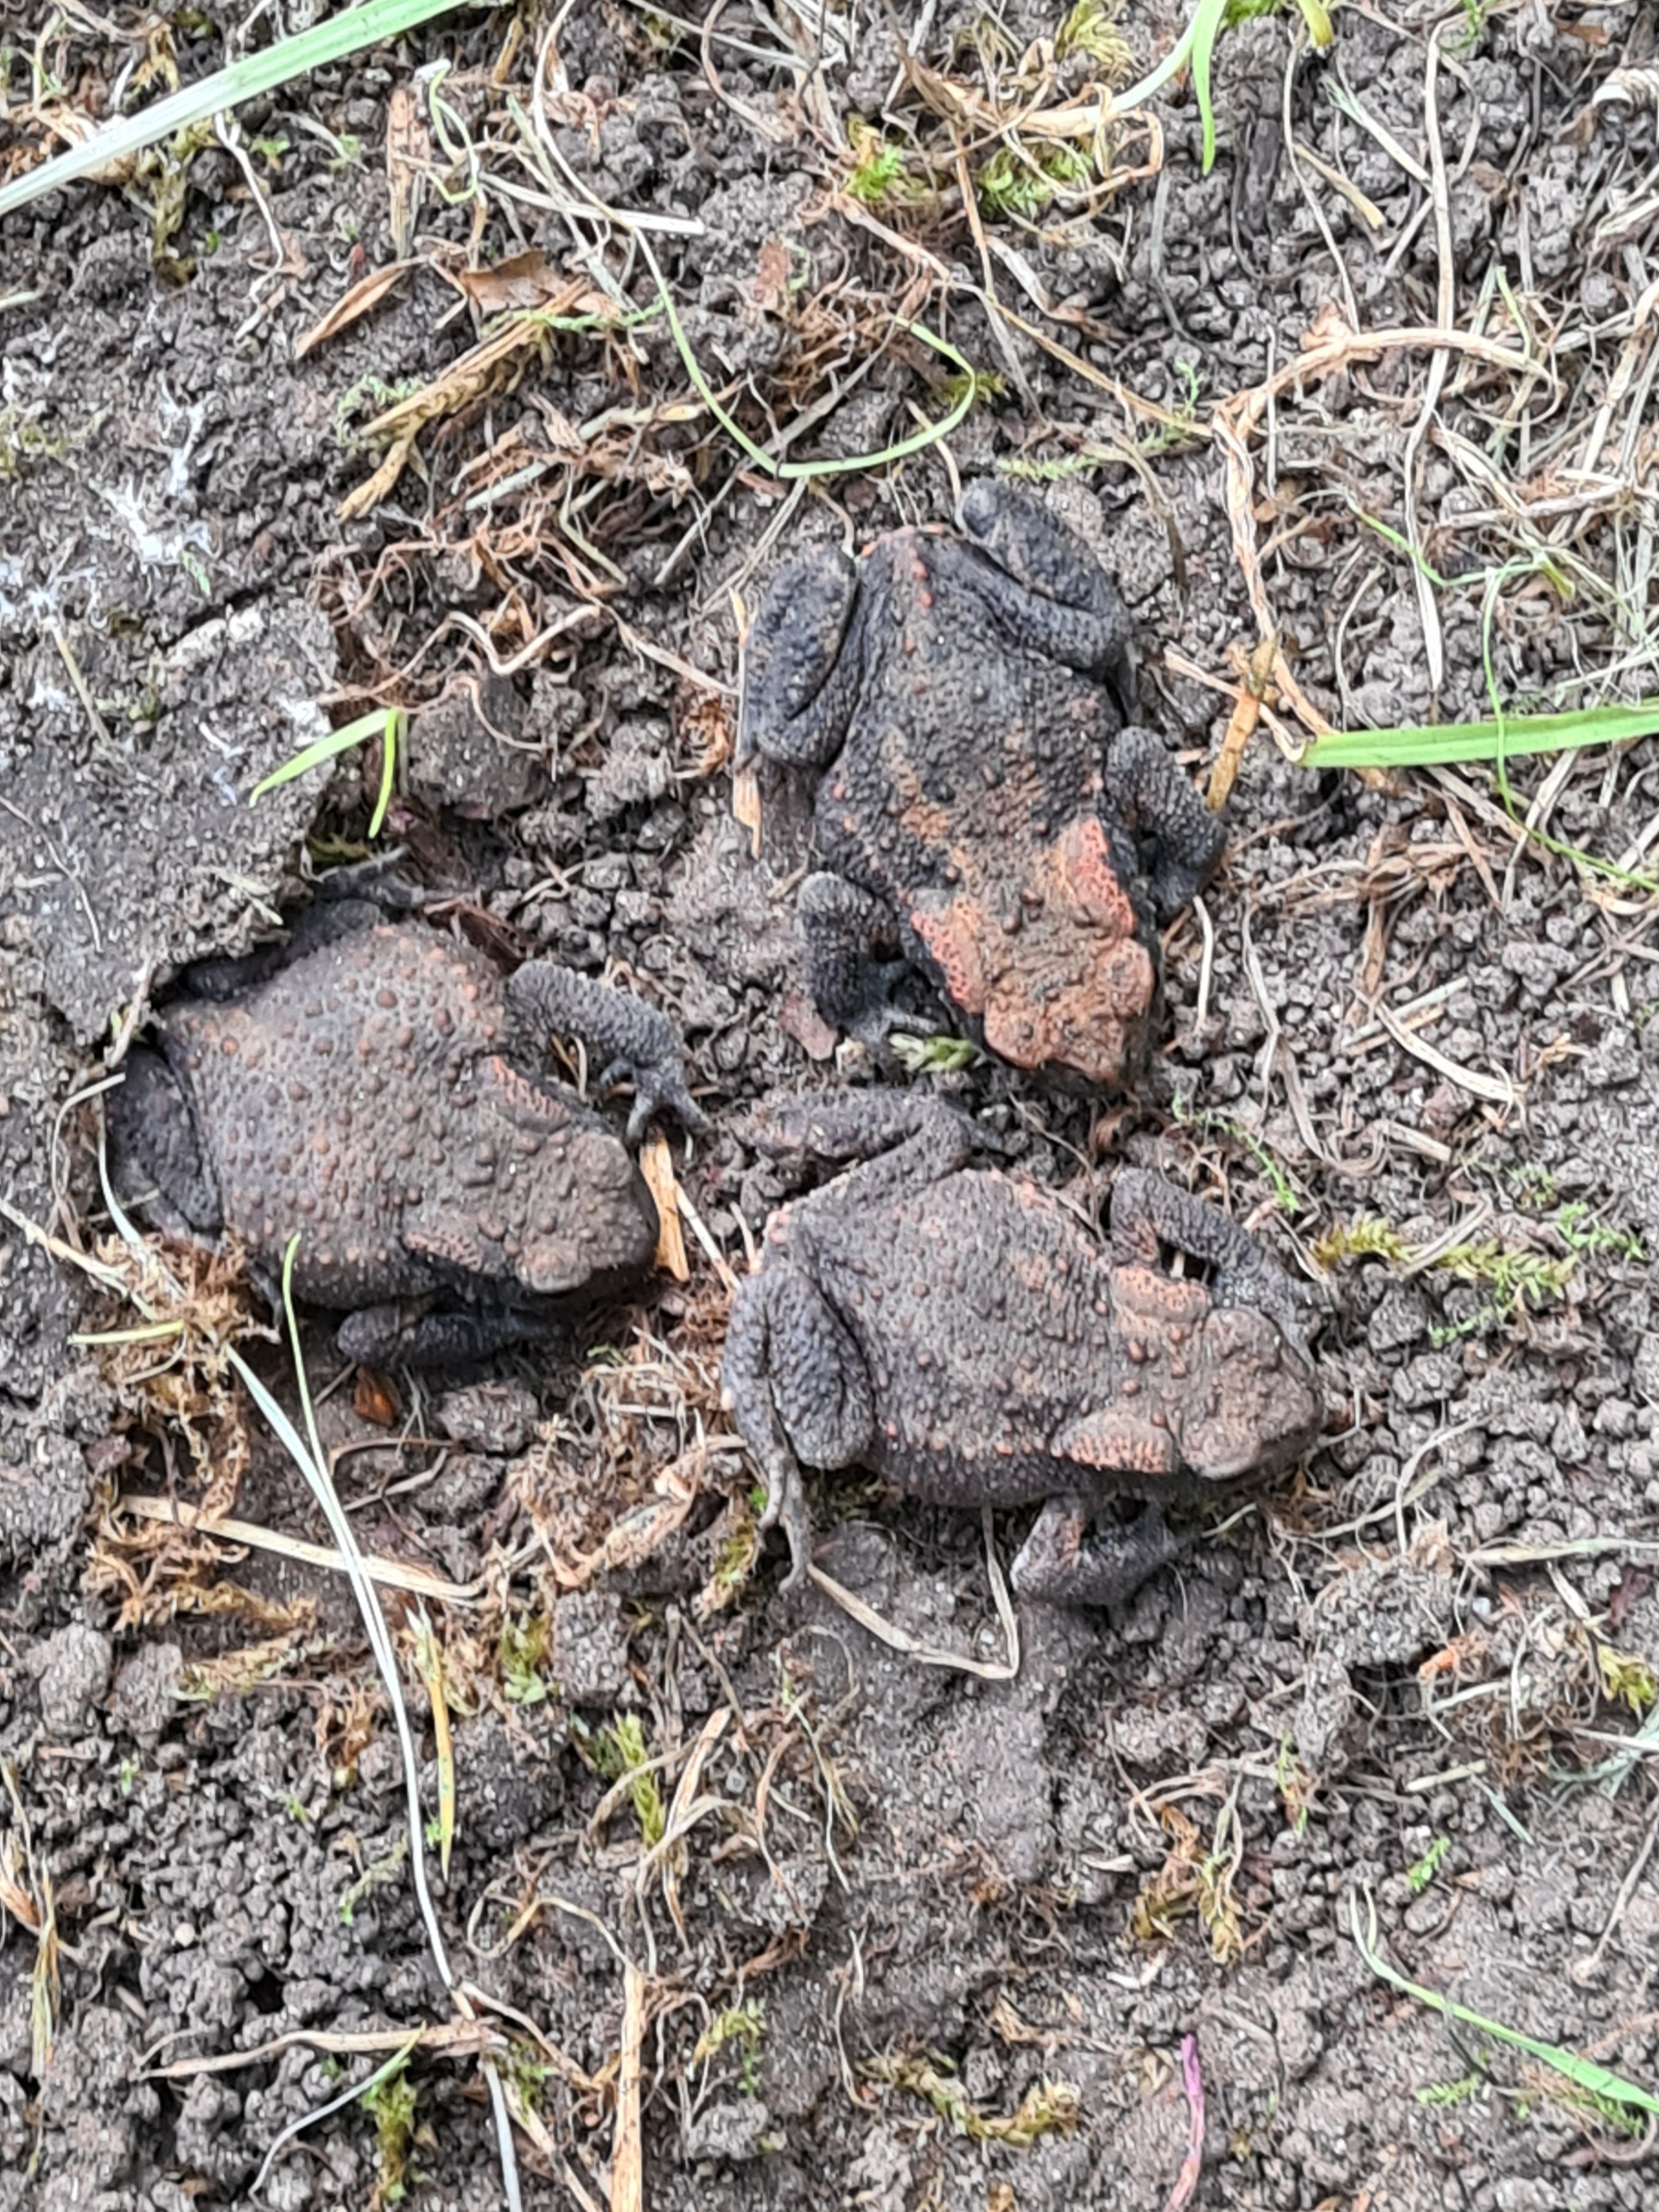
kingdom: Animalia
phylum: Chordata
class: Amphibia
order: Anura
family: Bufonidae
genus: Bufo
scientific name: Bufo bufo
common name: Skrubtudse
